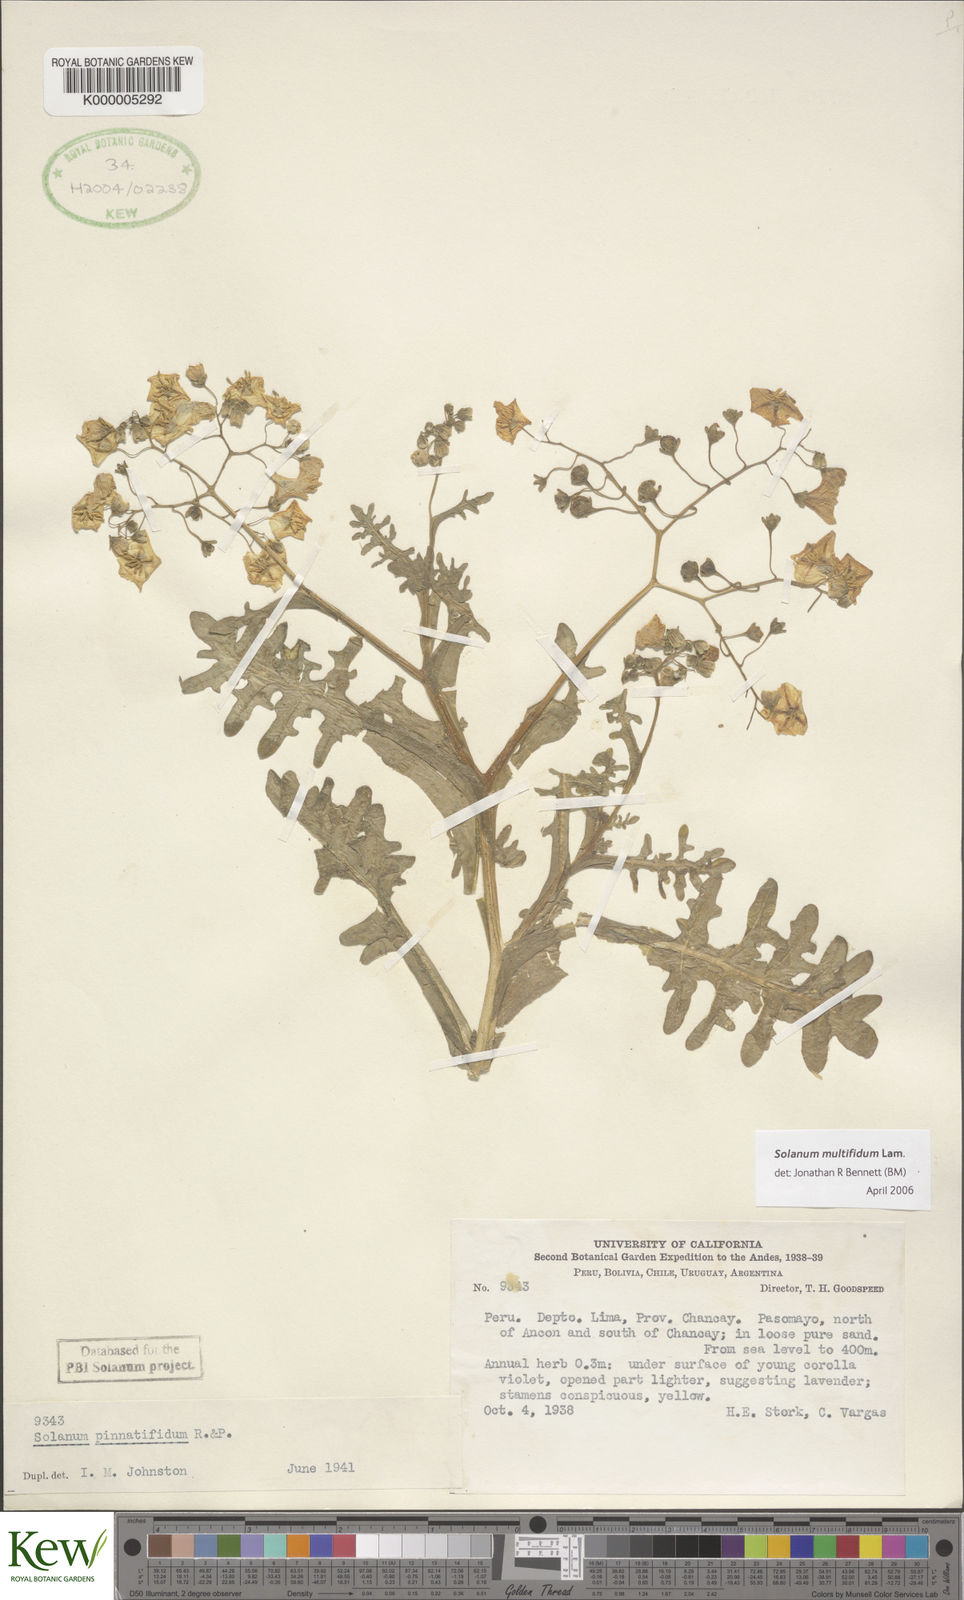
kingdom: Plantae
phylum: Tracheophyta
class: Magnoliopsida
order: Solanales
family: Solanaceae
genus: Solanum
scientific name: Solanum multifidum
